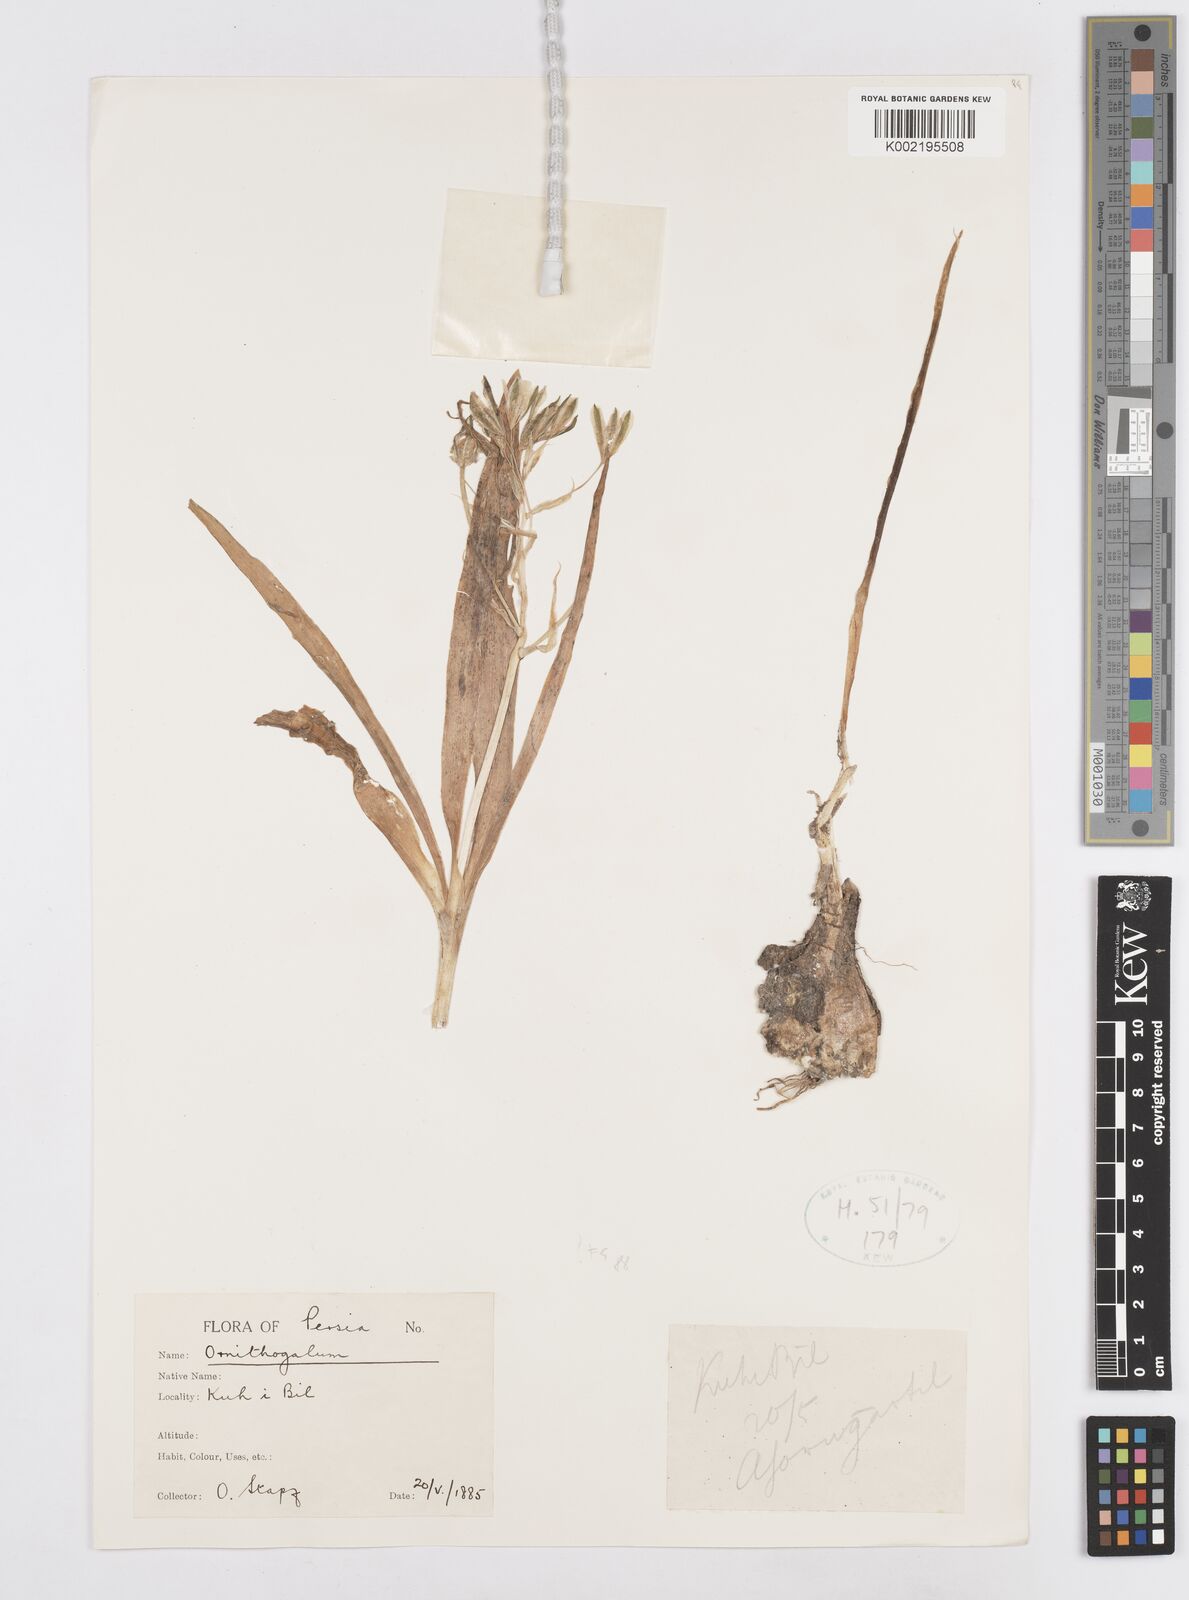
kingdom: Plantae
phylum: Tracheophyta
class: Liliopsida
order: Asparagales
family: Asparagaceae
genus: Ornithogalum
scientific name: Ornithogalum
